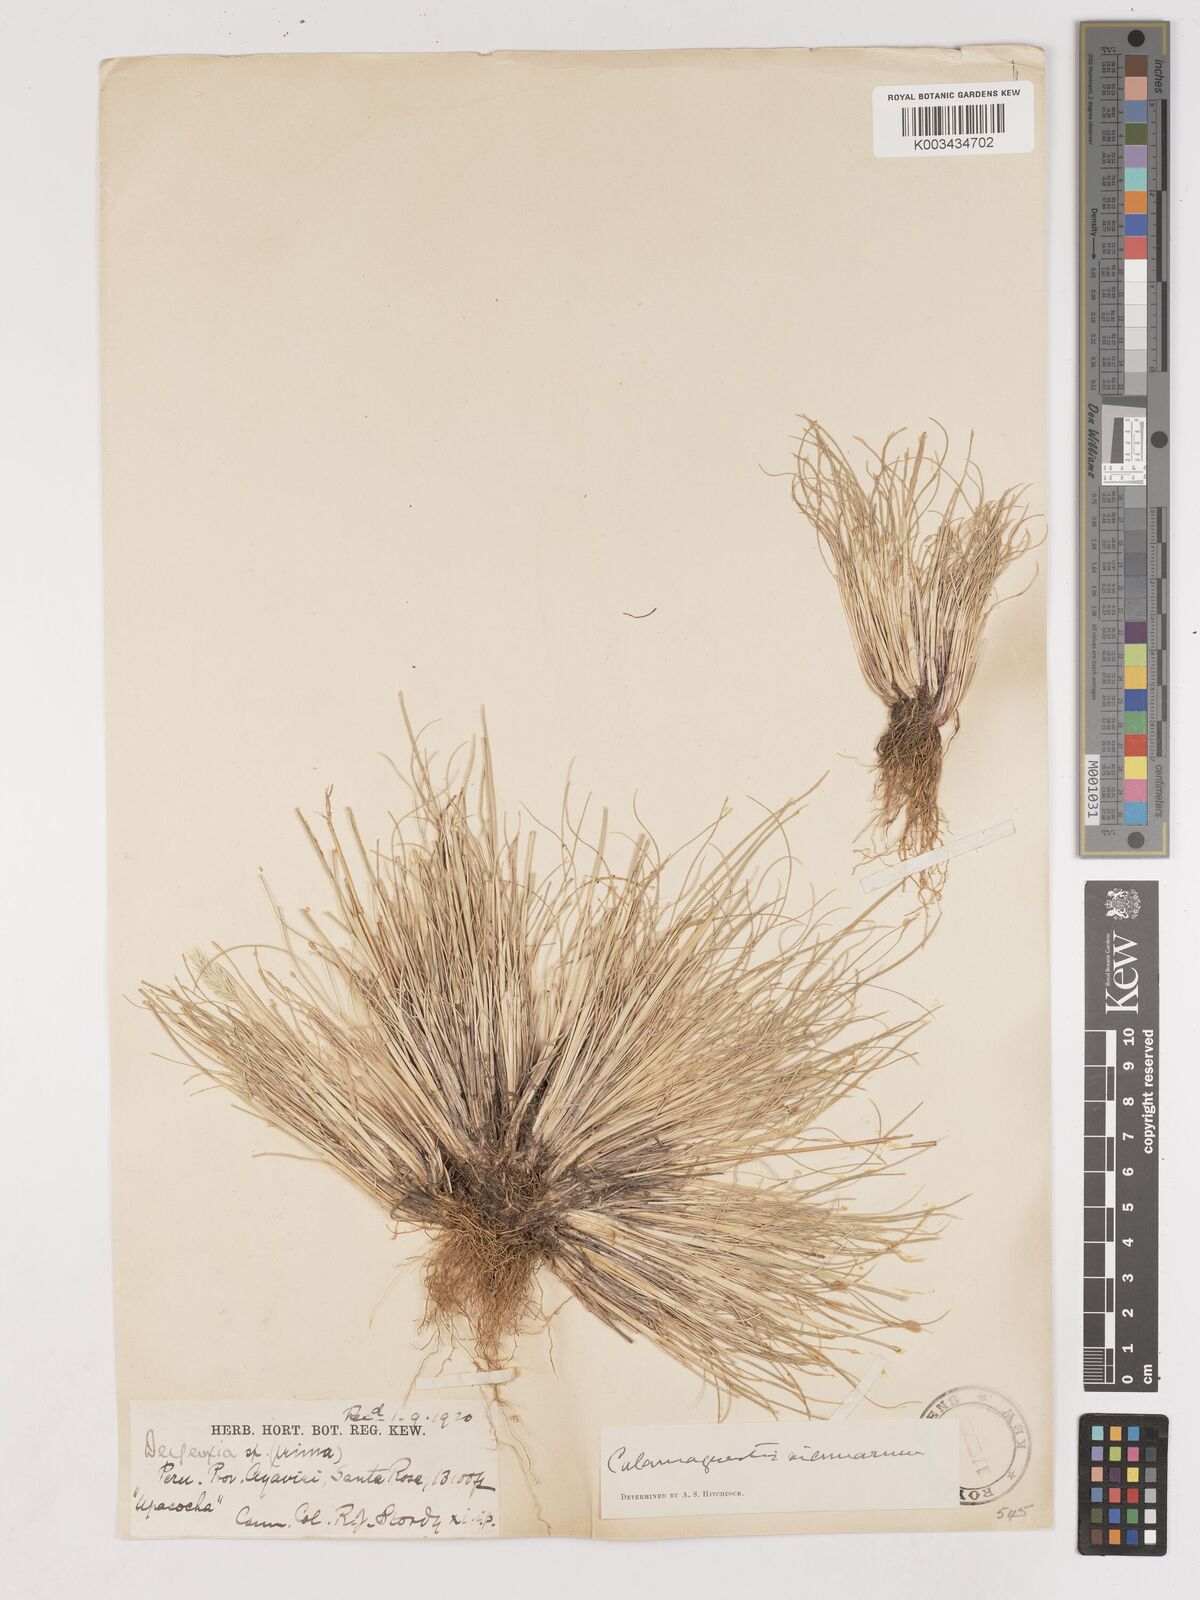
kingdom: Plantae
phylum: Tracheophyta
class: Liliopsida
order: Poales
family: Poaceae
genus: Cinnagrostis
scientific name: Cinnagrostis vicunarum
